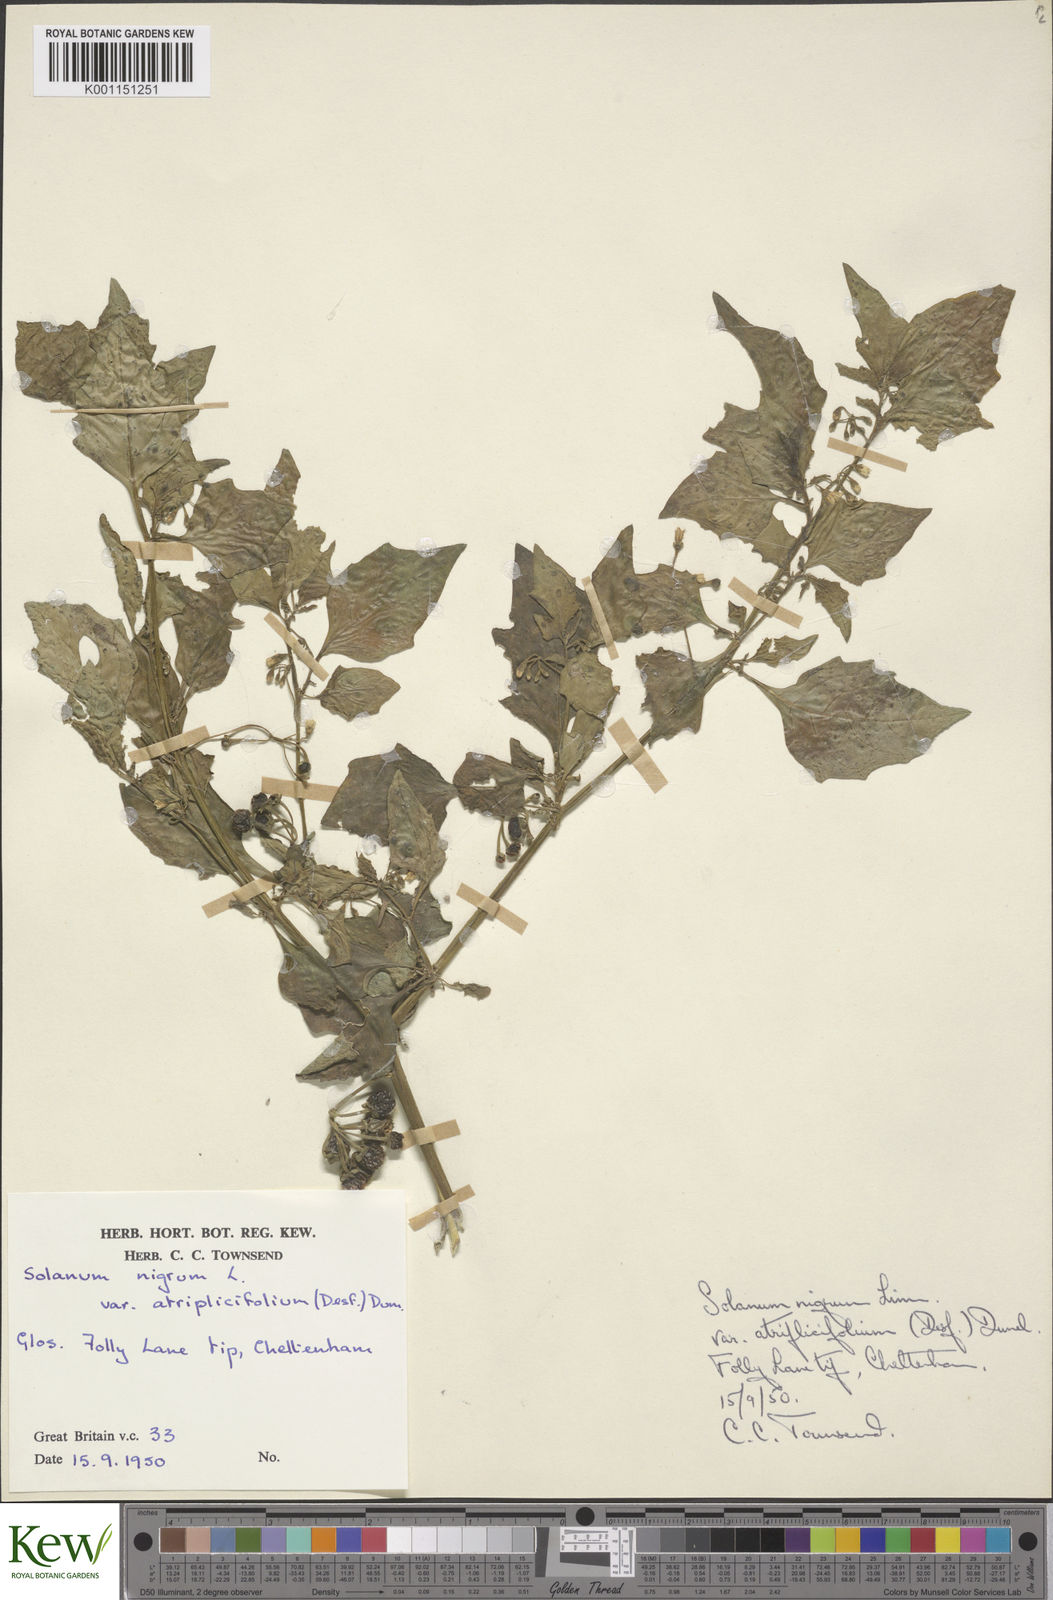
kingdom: Plantae
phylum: Tracheophyta
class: Magnoliopsida
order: Solanales
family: Solanaceae
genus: Solanum
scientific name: Solanum nigrum
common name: Black nightshade
